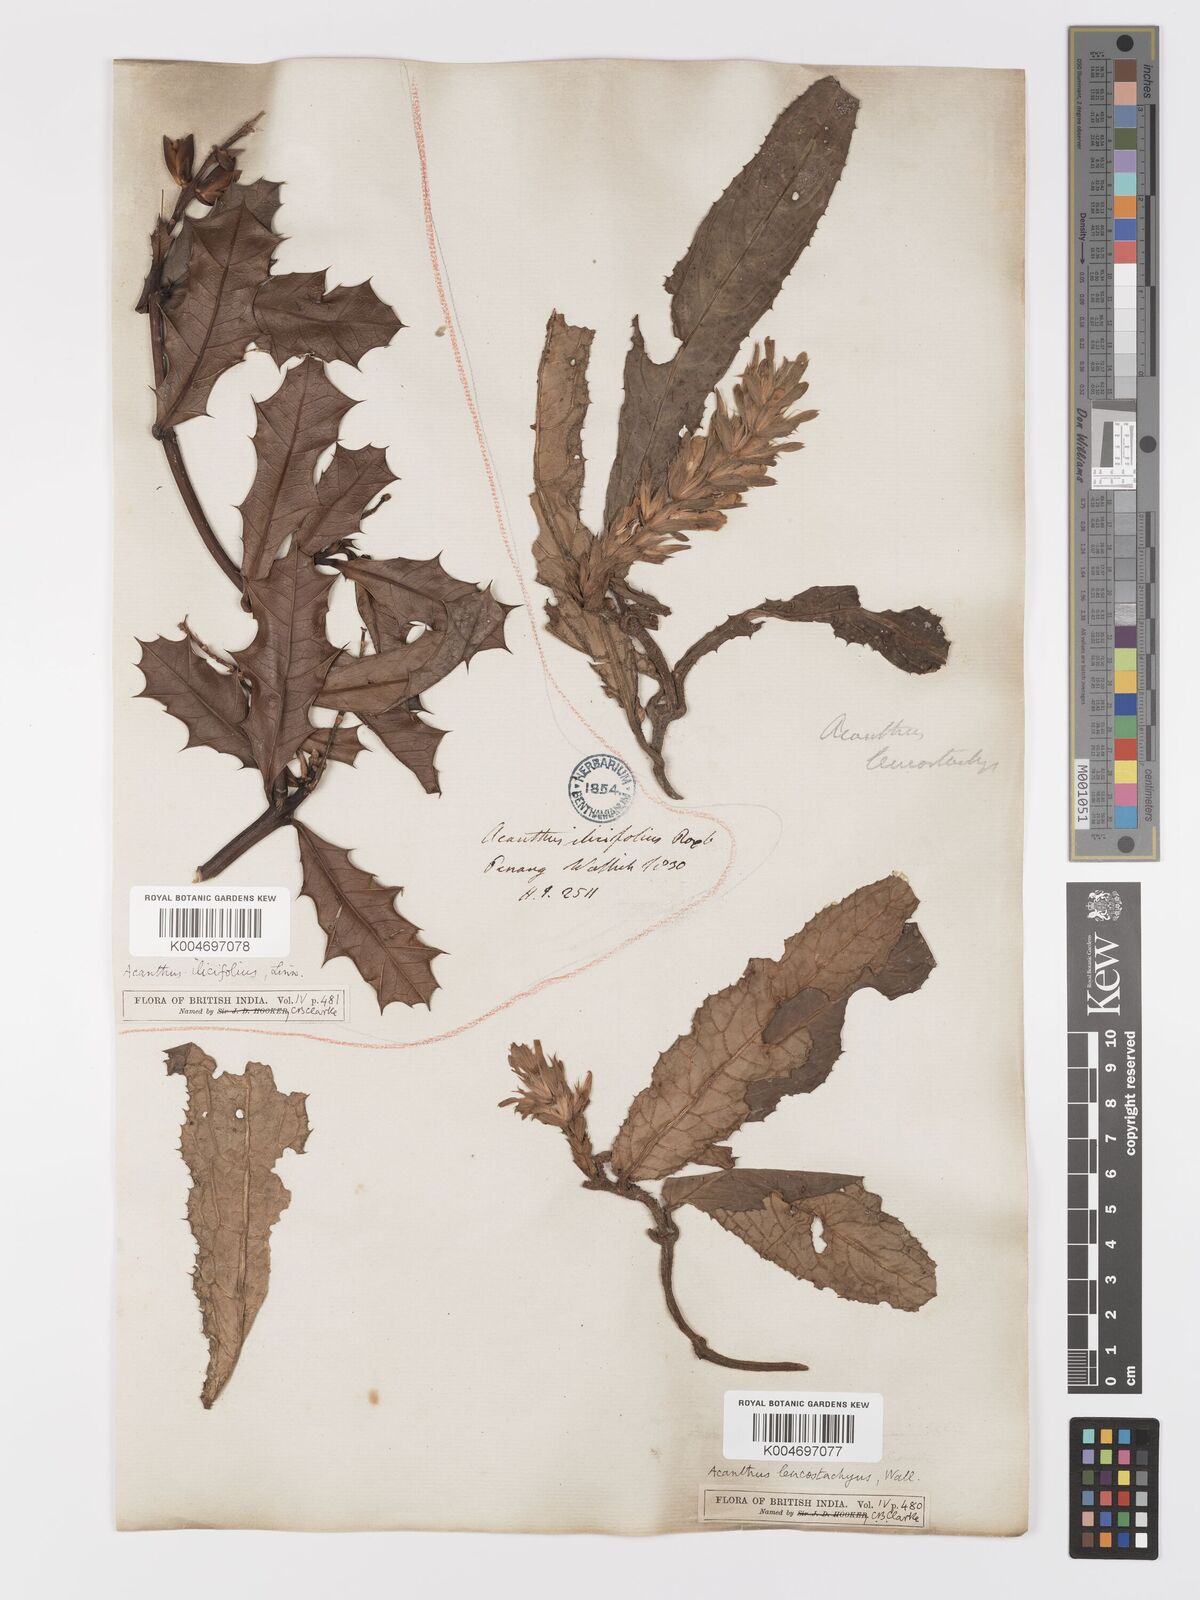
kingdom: Plantae
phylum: Tracheophyta
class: Magnoliopsida
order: Lamiales
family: Acanthaceae
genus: Acanthus
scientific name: Acanthus leucostachyus
